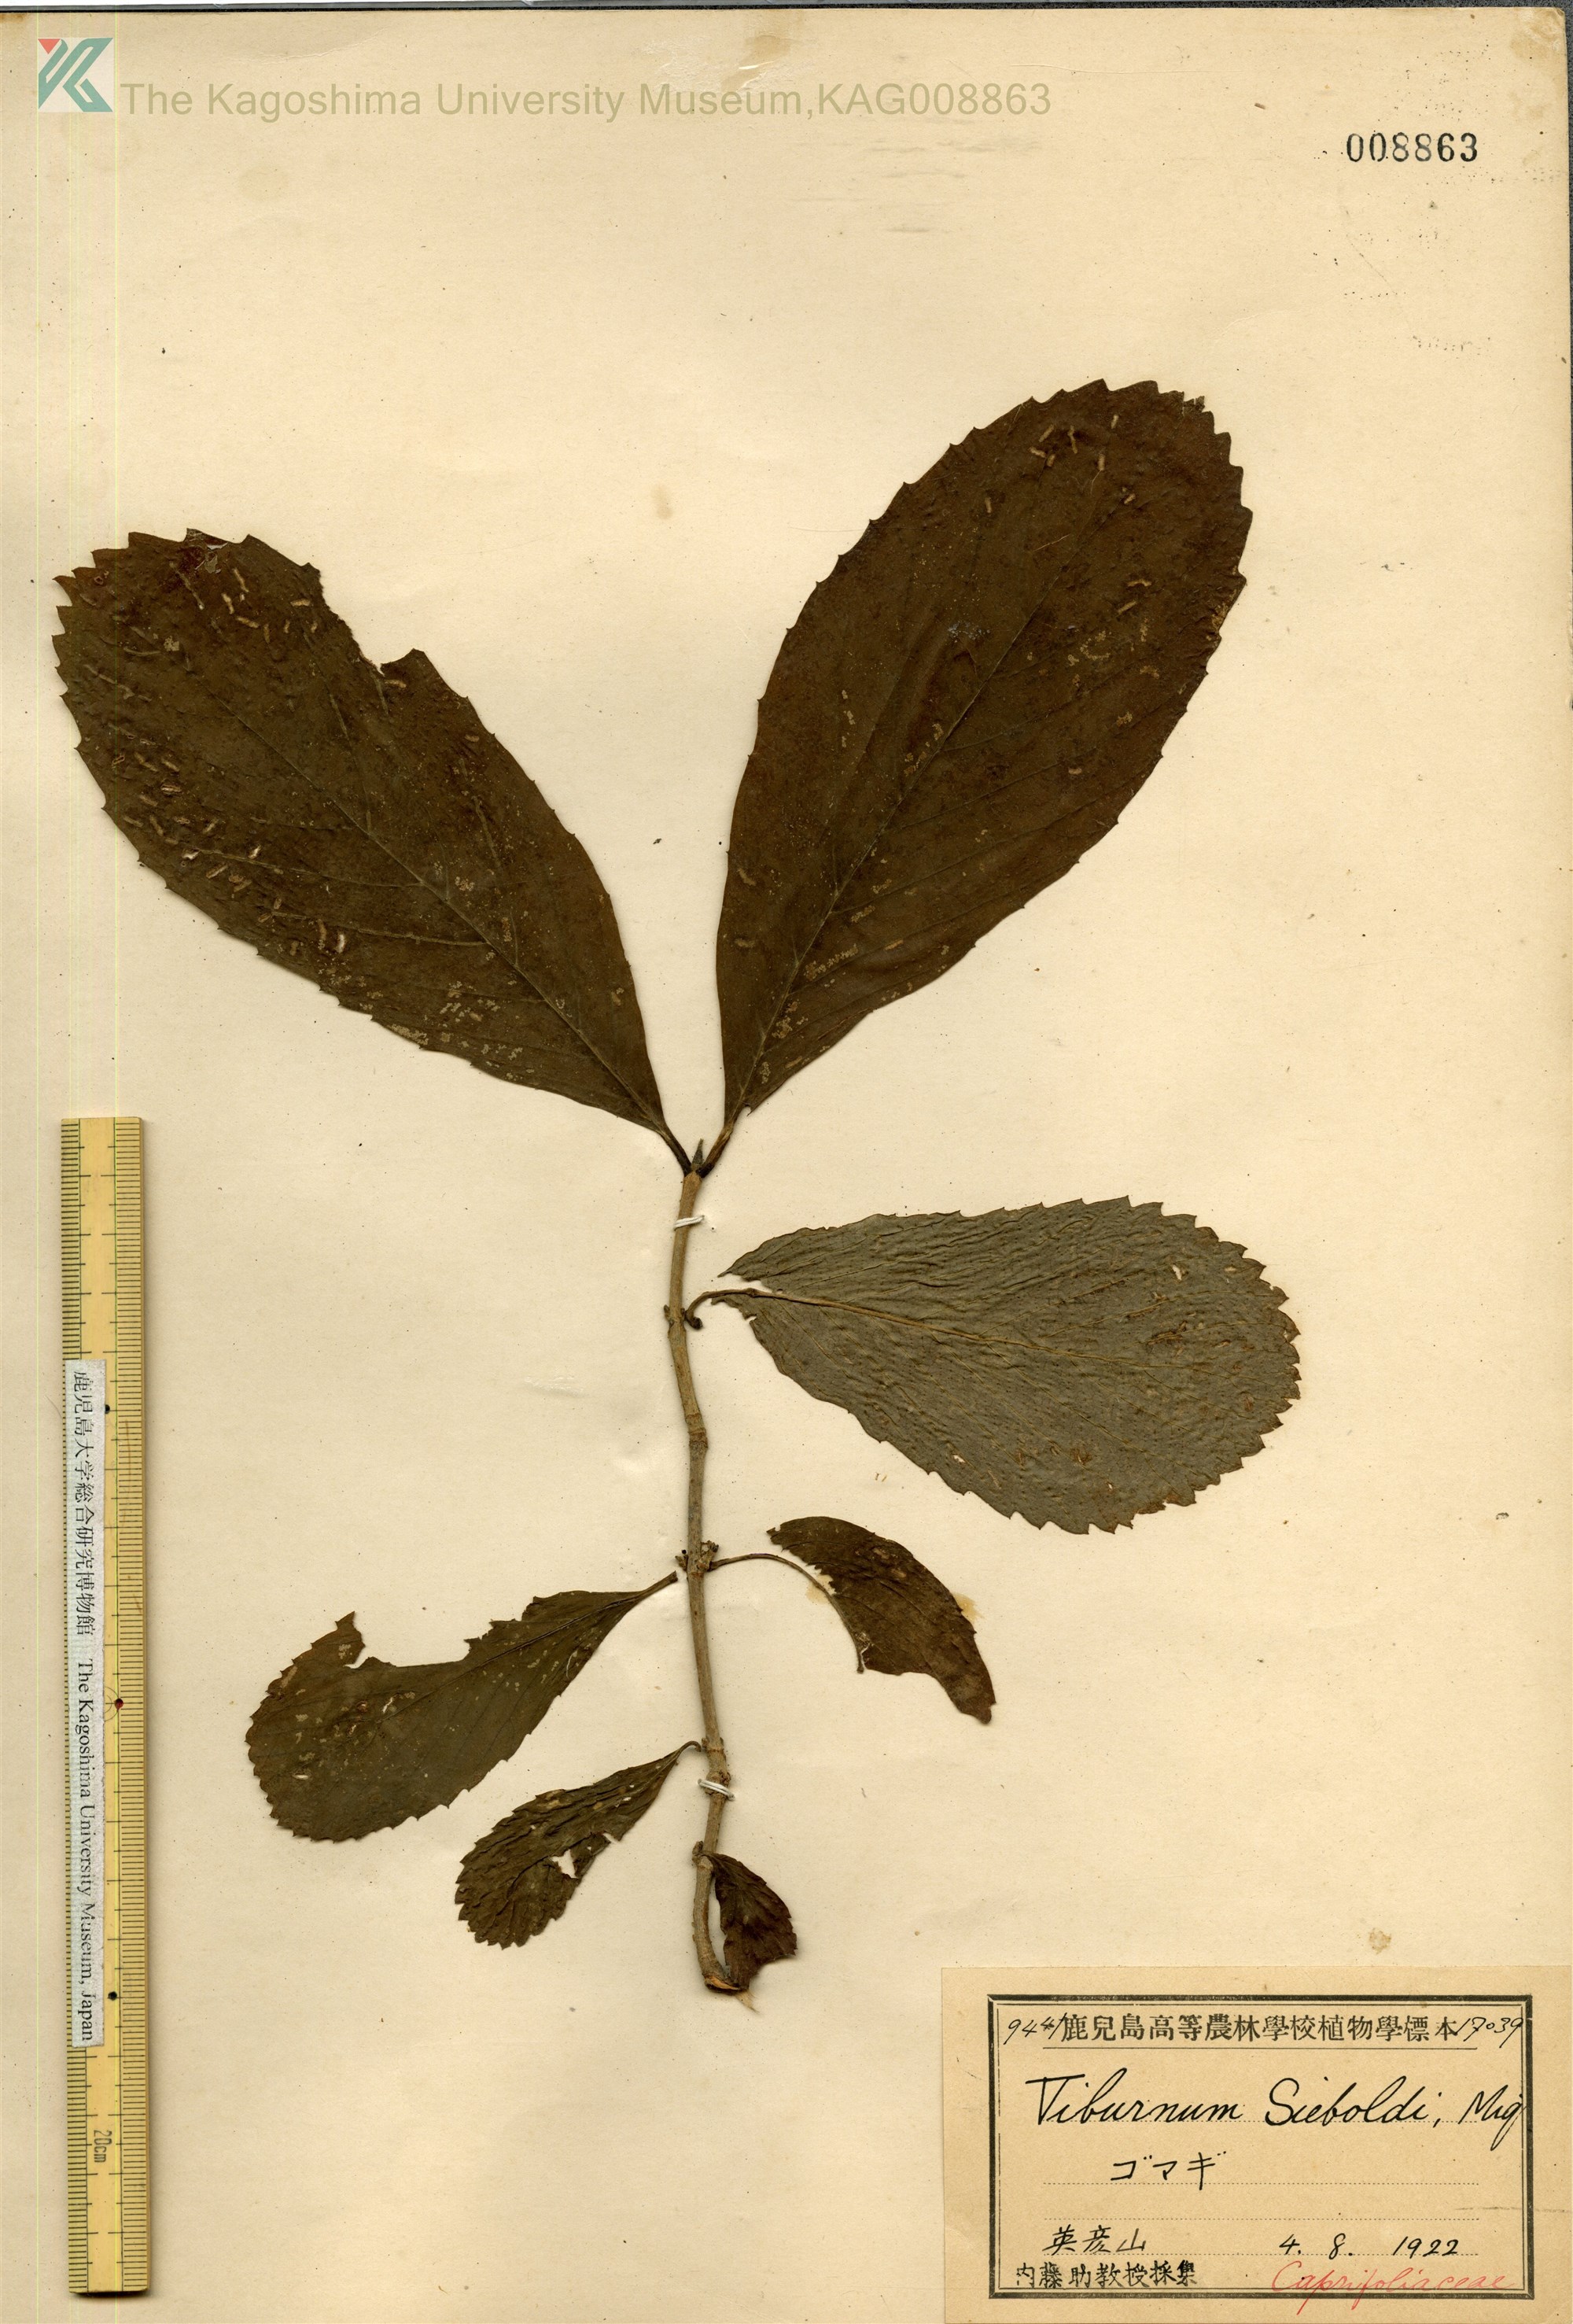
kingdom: Plantae
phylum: Tracheophyta
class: Magnoliopsida
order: Dipsacales
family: Viburnaceae
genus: Viburnum
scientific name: Viburnum sieboldii
